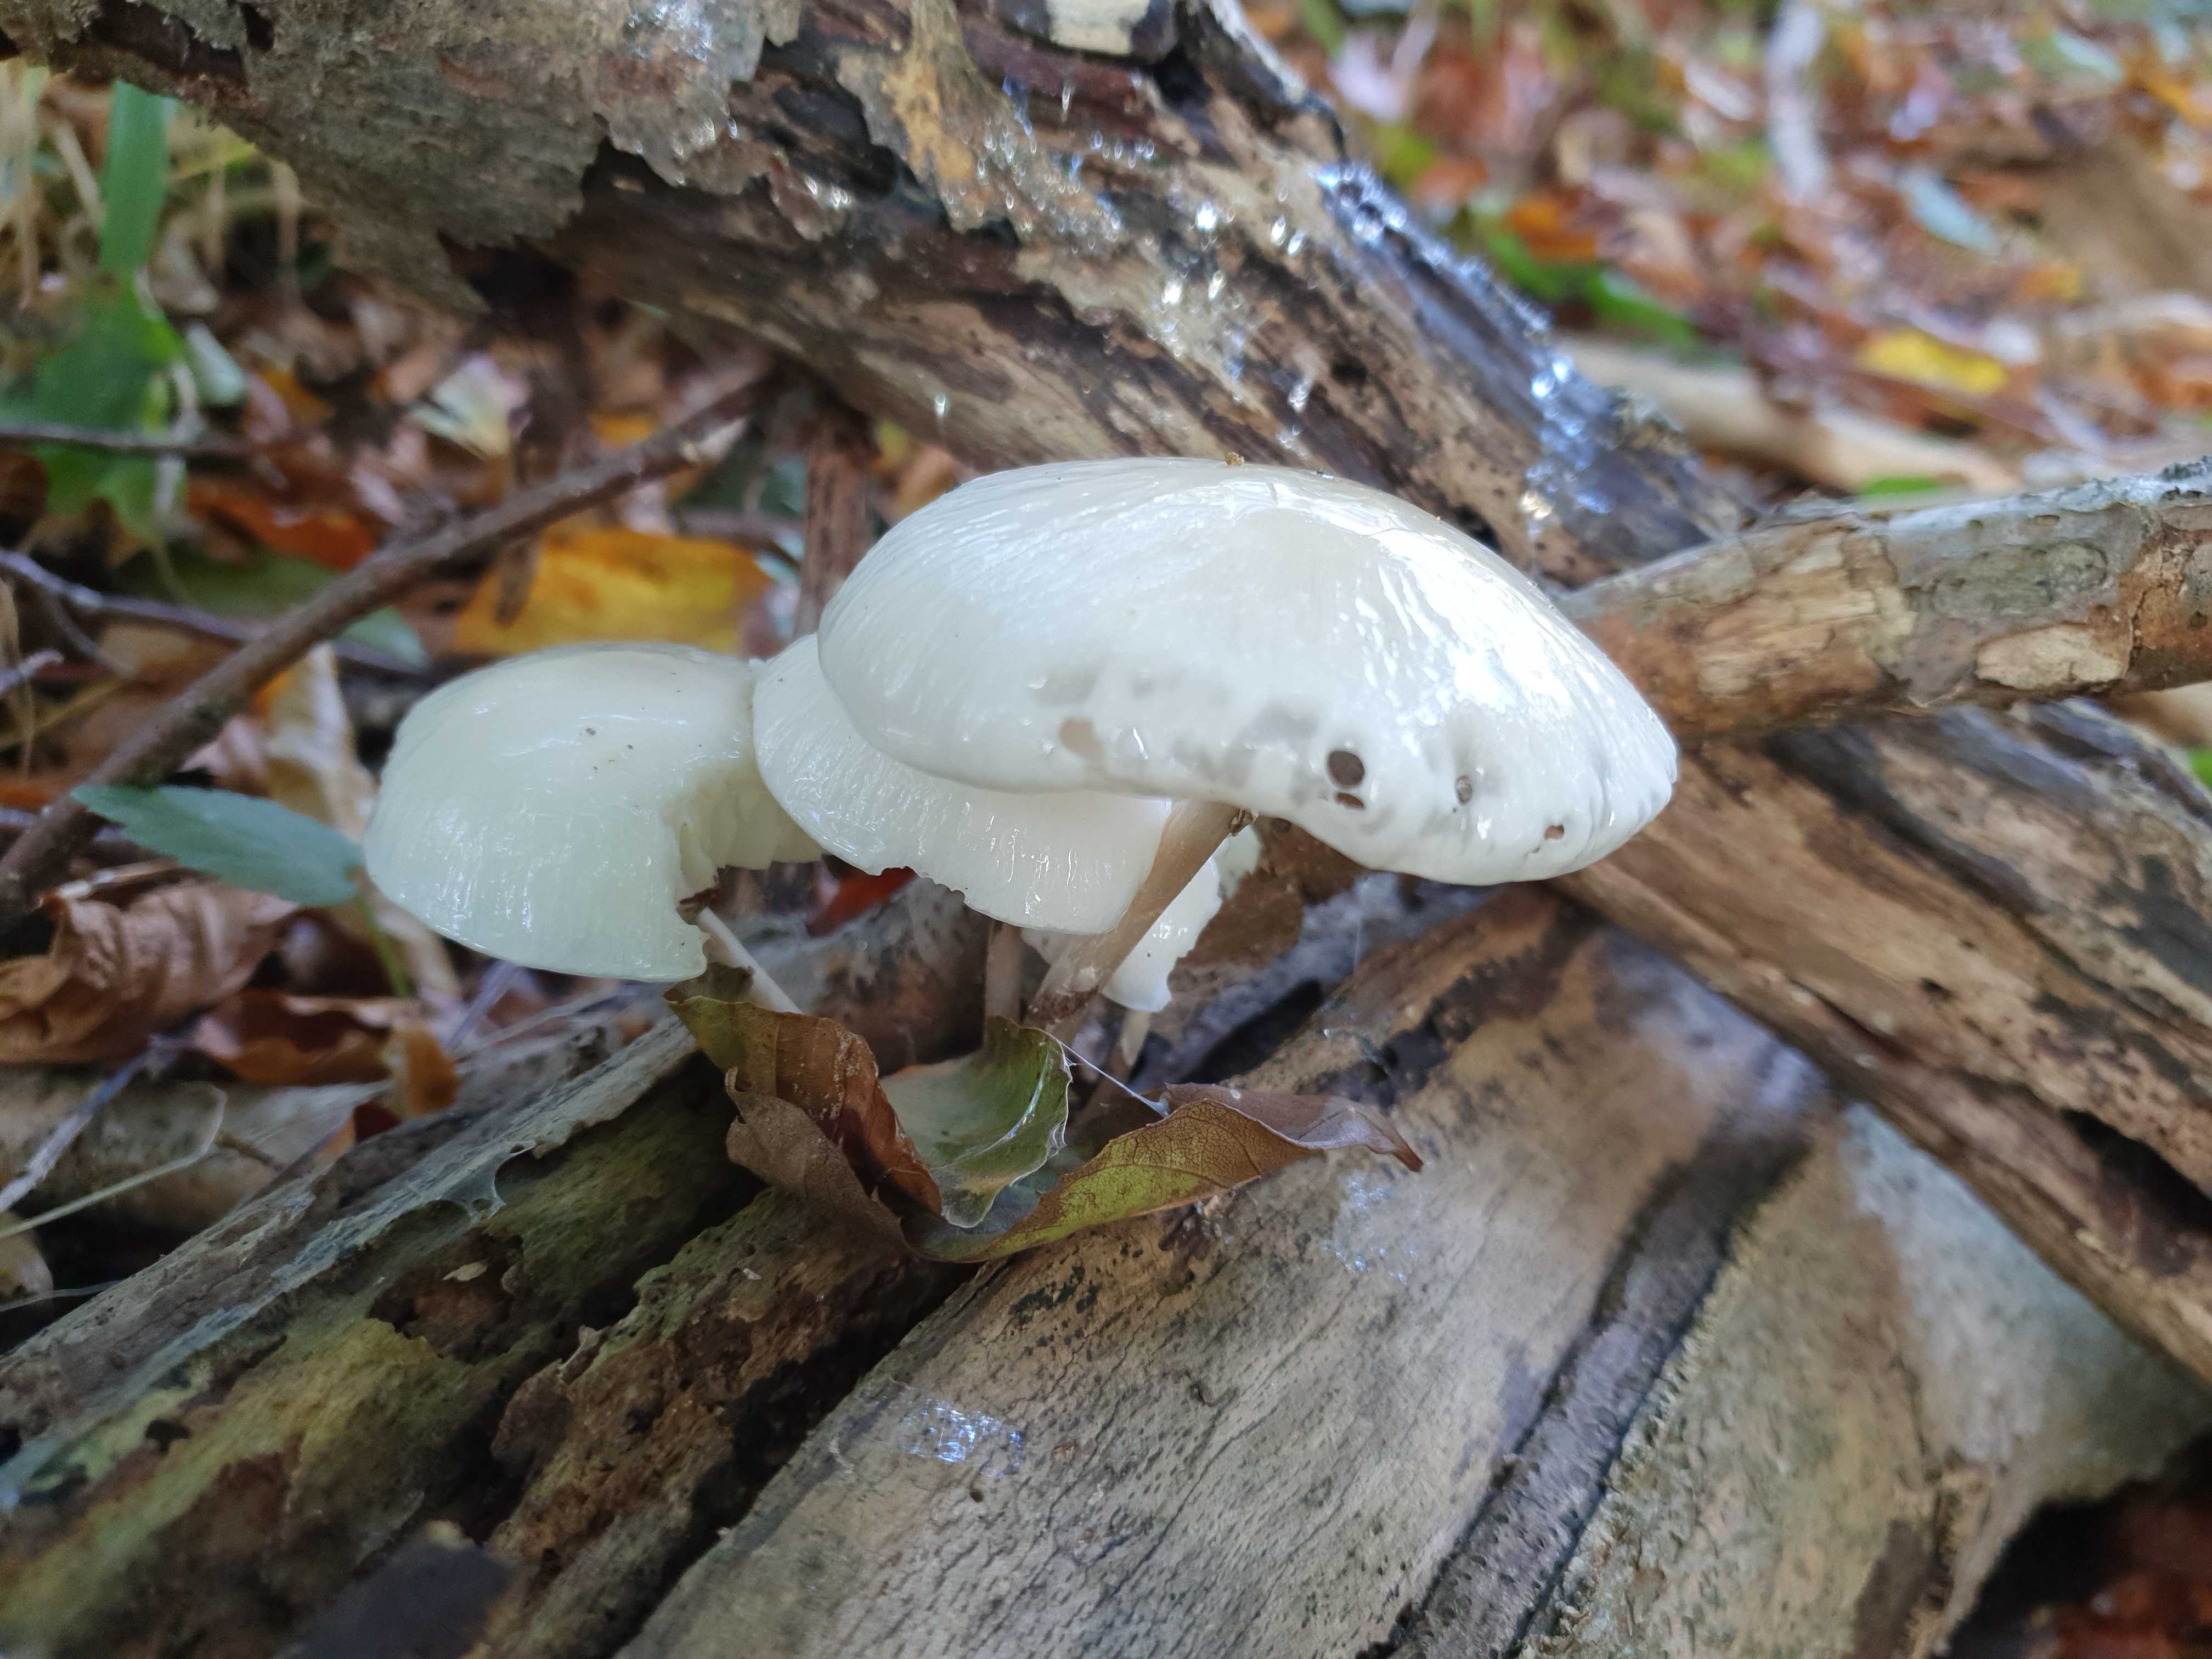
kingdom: Fungi
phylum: Basidiomycota
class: Agaricomycetes
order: Agaricales
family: Physalacriaceae
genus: Mucidula
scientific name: Mucidula mucida
